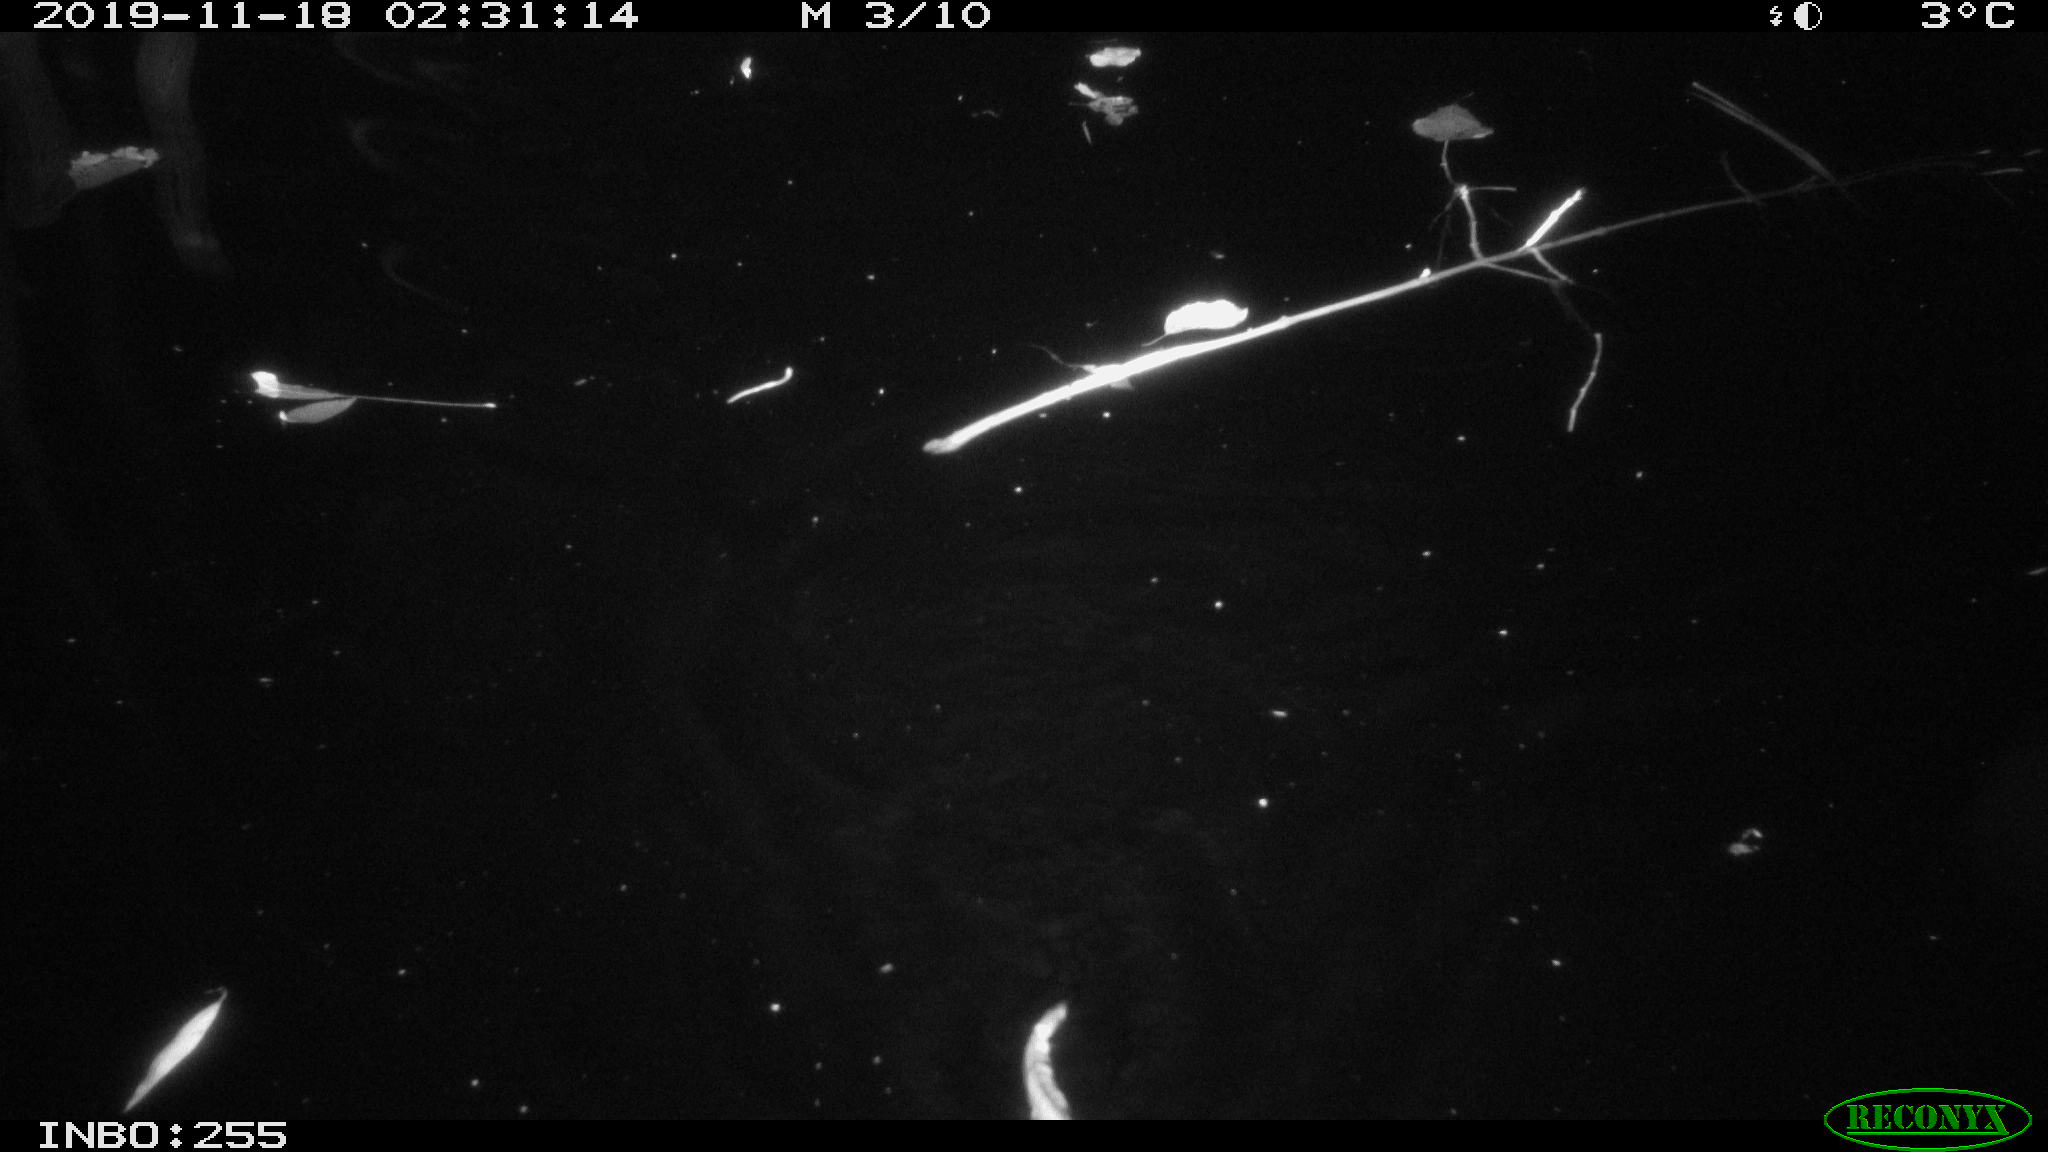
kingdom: Animalia
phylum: Chordata
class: Mammalia
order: Rodentia
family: Cricetidae
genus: Ondatra
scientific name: Ondatra zibethicus
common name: Muskrat
